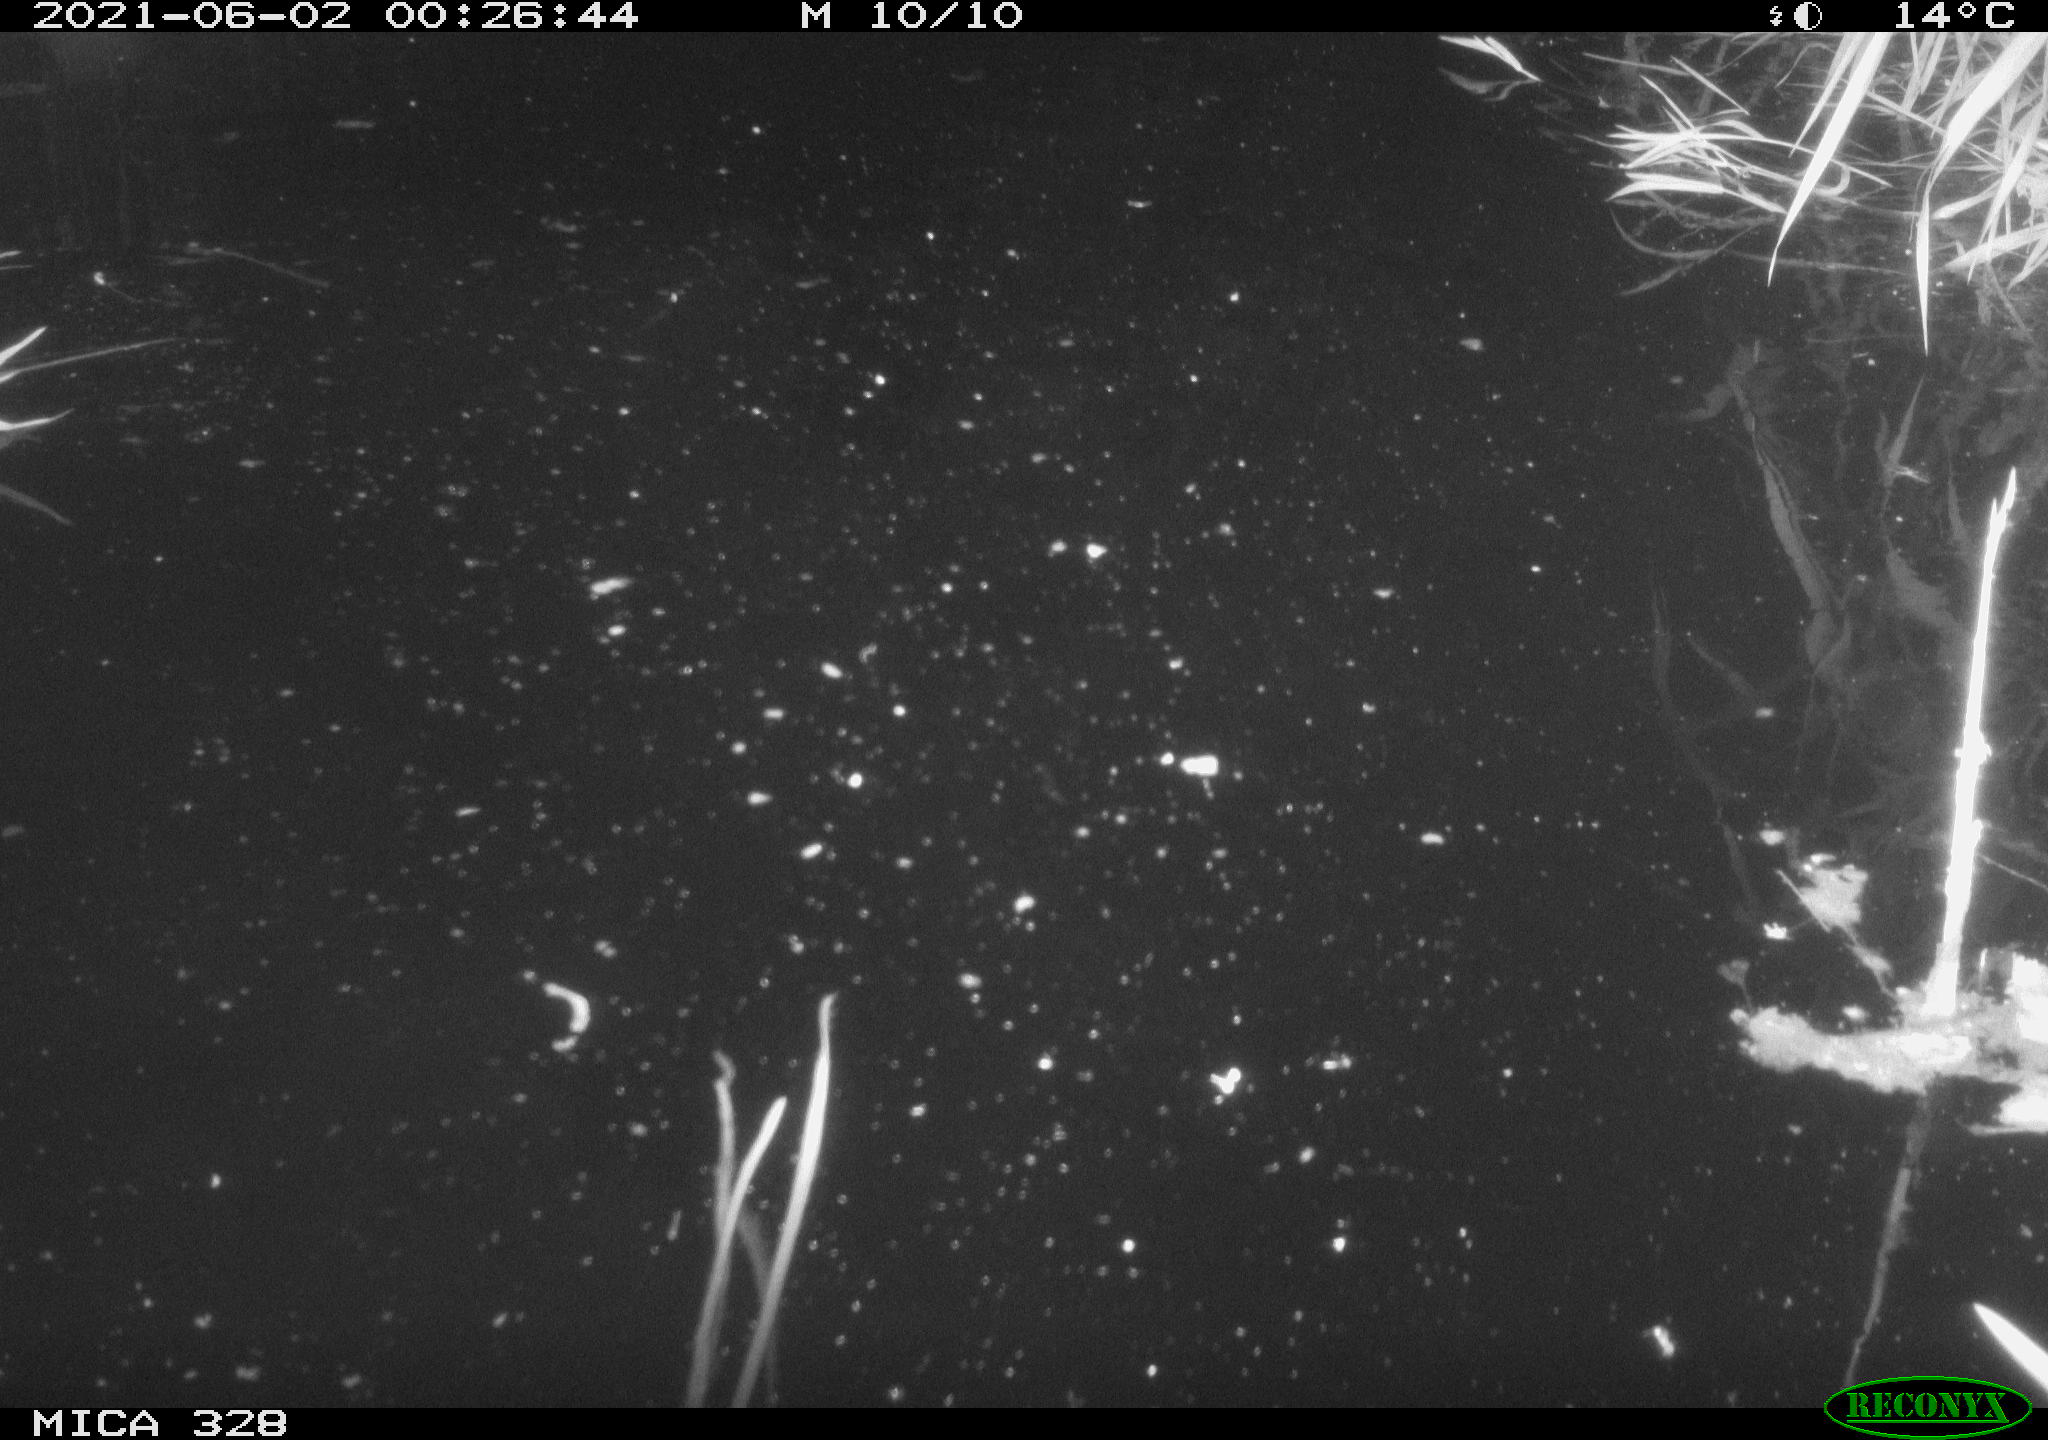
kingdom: Animalia
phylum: Chordata
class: Mammalia
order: Rodentia
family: Cricetidae
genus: Ondatra
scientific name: Ondatra zibethicus
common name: Muskrat
